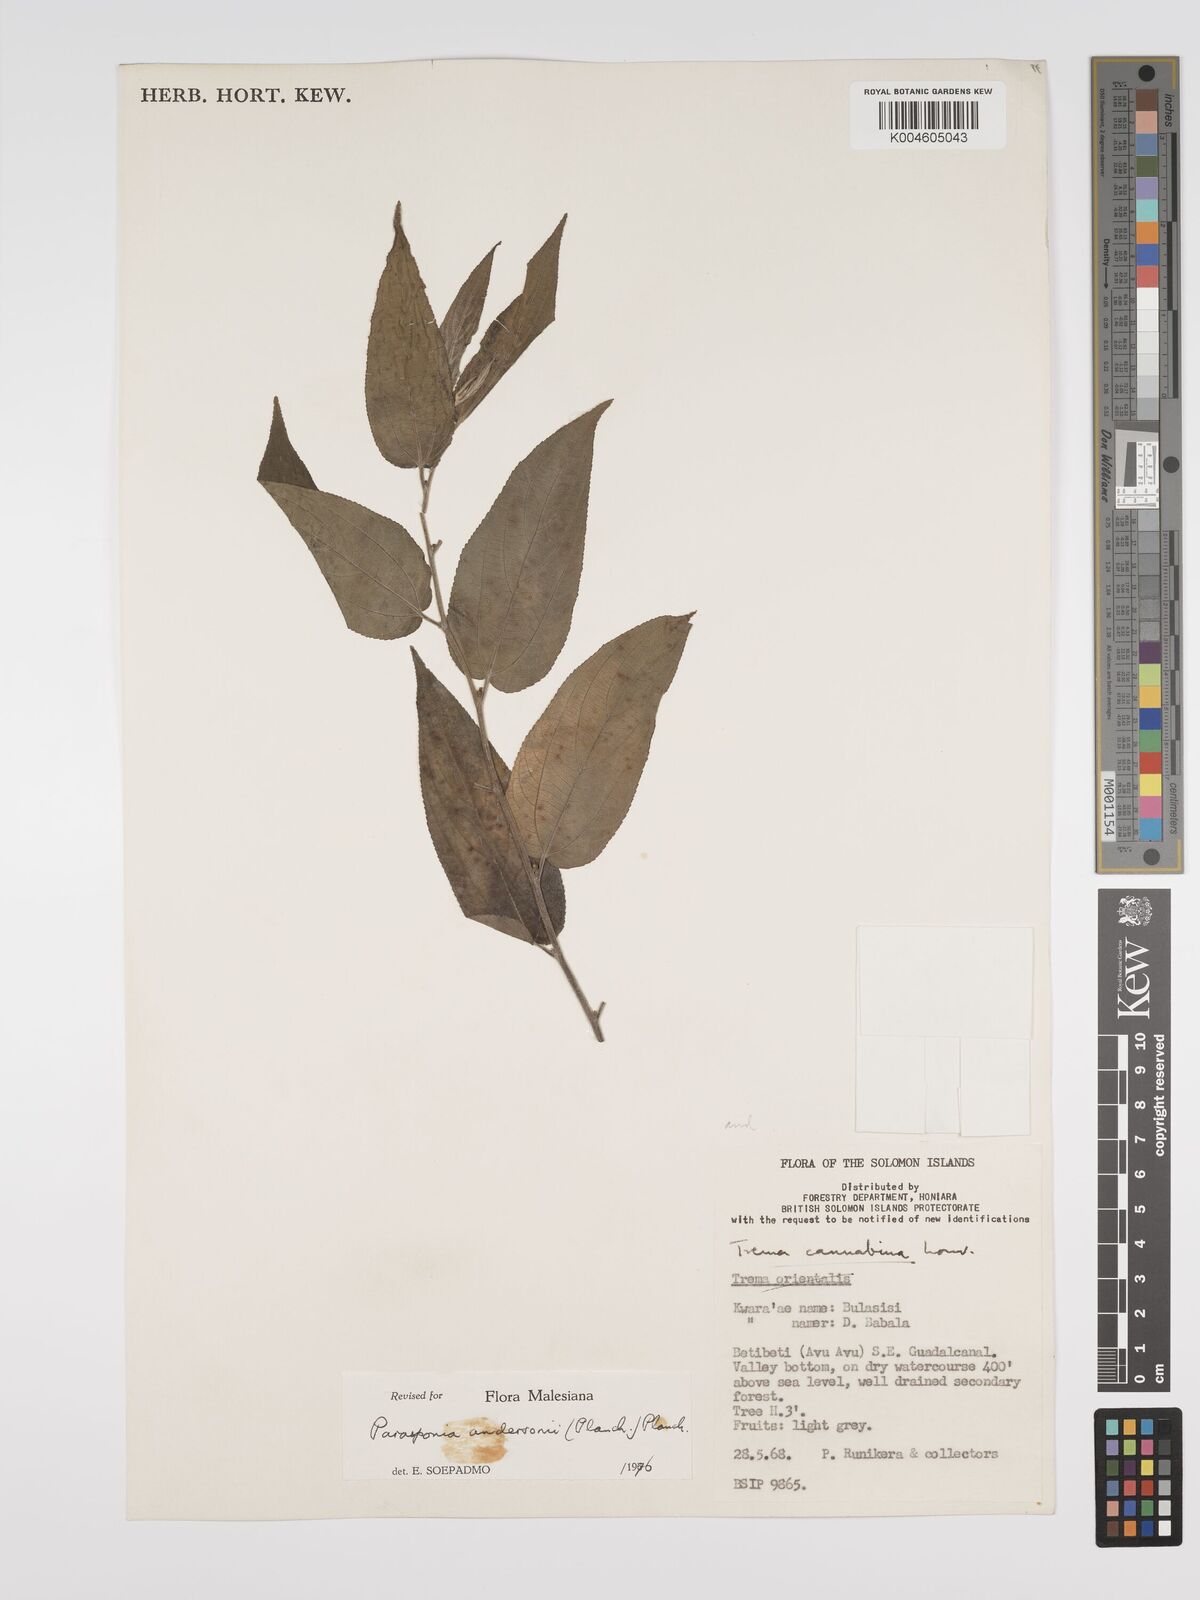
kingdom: Plantae
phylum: Tracheophyta
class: Magnoliopsida
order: Rosales
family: Cannabaceae
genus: Trema
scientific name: Trema andersonii
